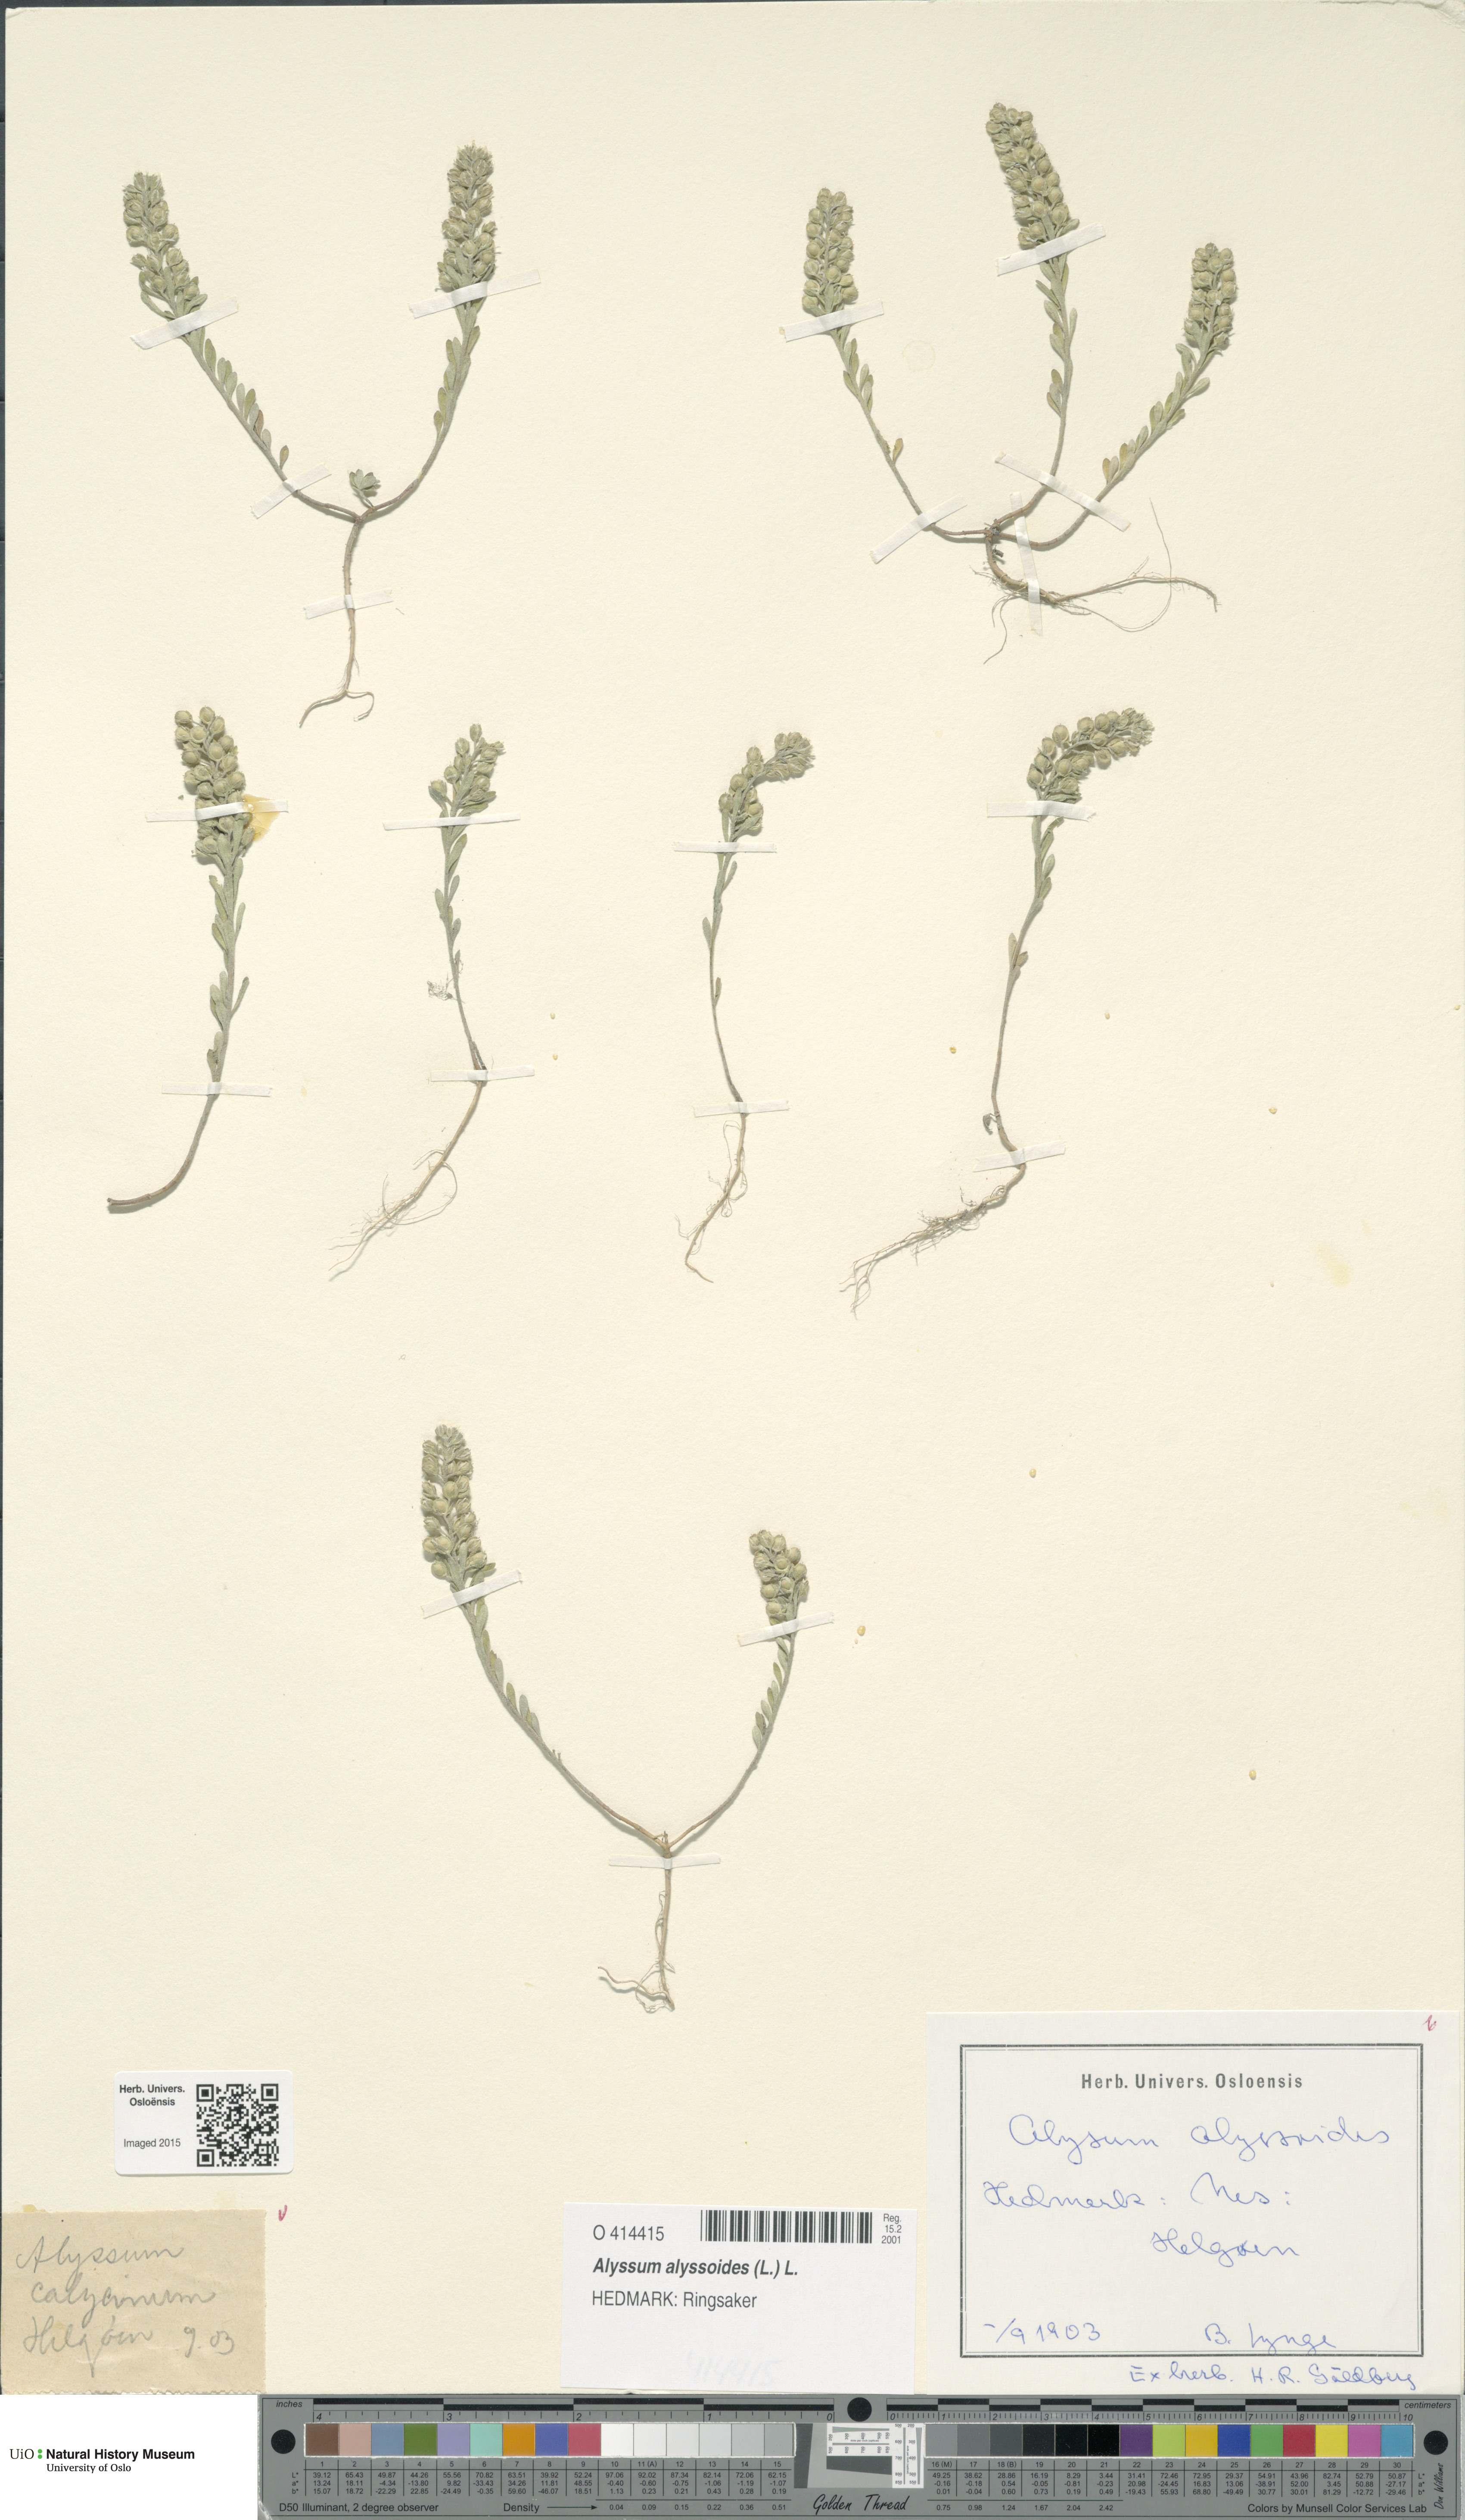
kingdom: Plantae
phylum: Tracheophyta
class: Magnoliopsida
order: Brassicales
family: Brassicaceae
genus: Alyssum
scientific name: Alyssum alyssoides
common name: Small alison
